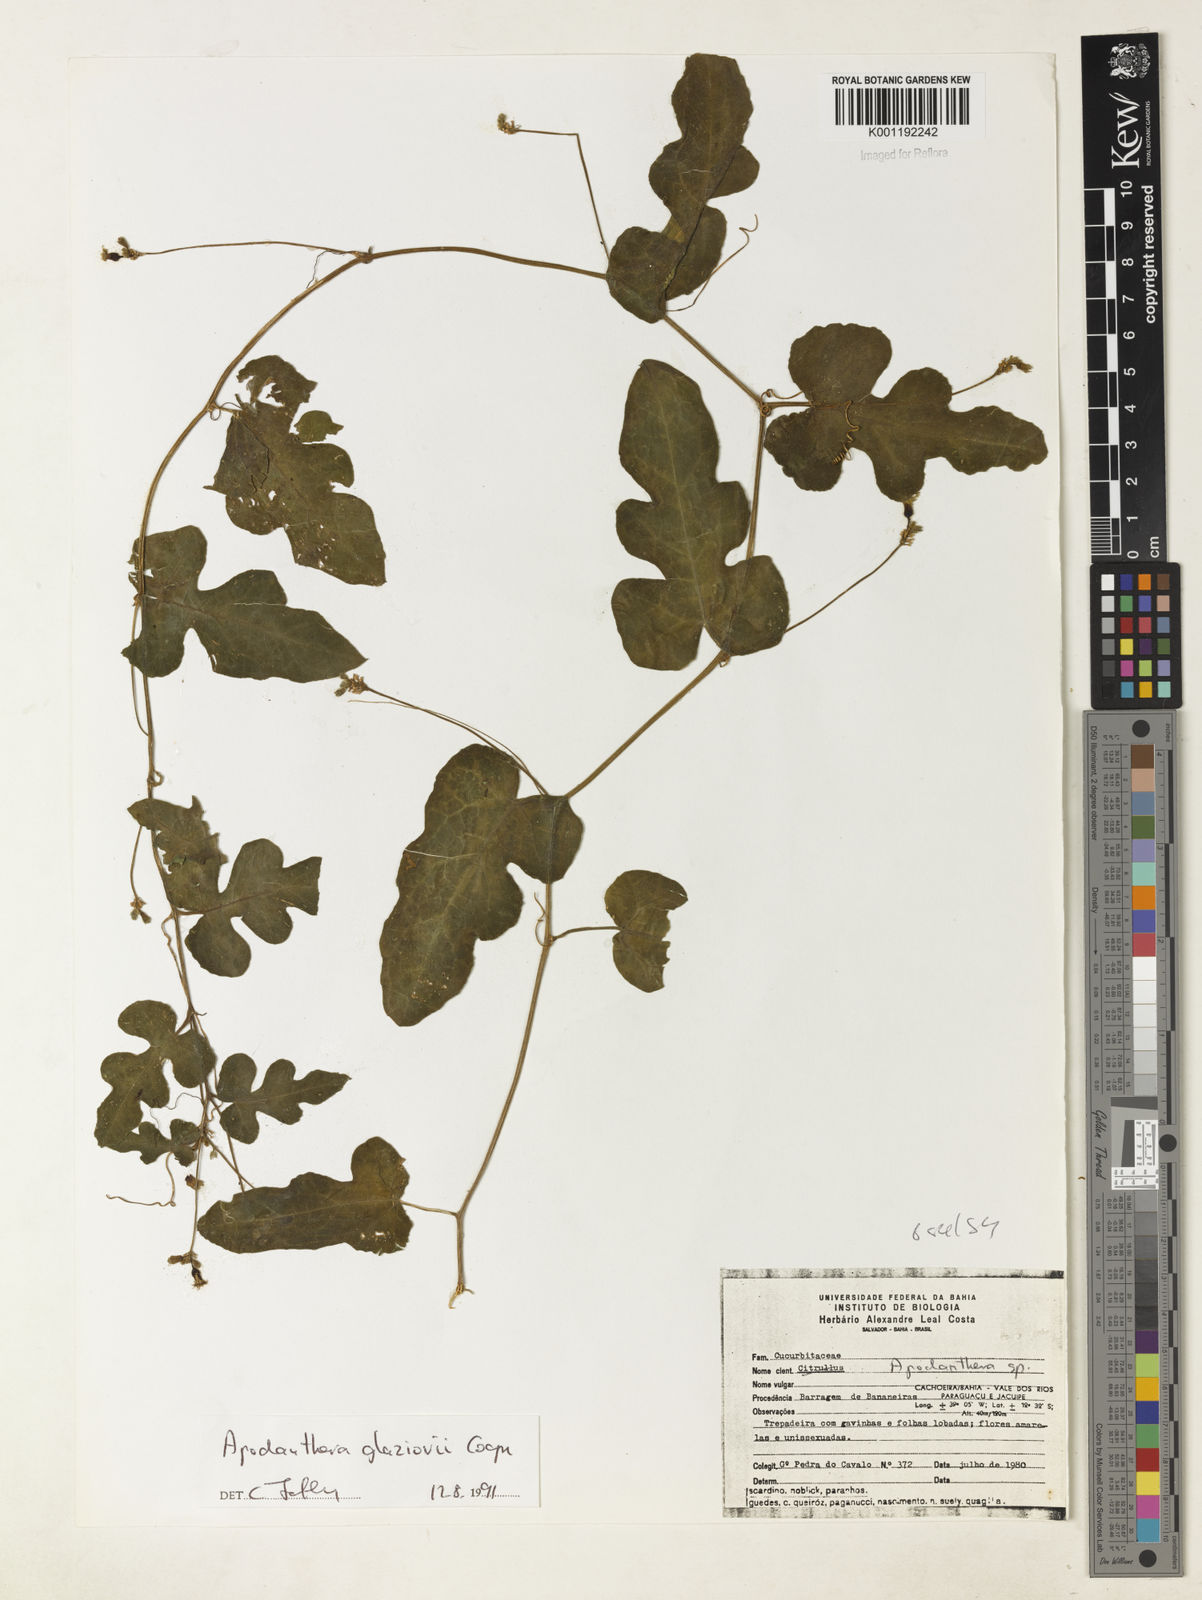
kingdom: Plantae
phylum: Tracheophyta
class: Magnoliopsida
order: Cucurbitales
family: Cucurbitaceae
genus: Apodanthera
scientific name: Apodanthera glaziovii
